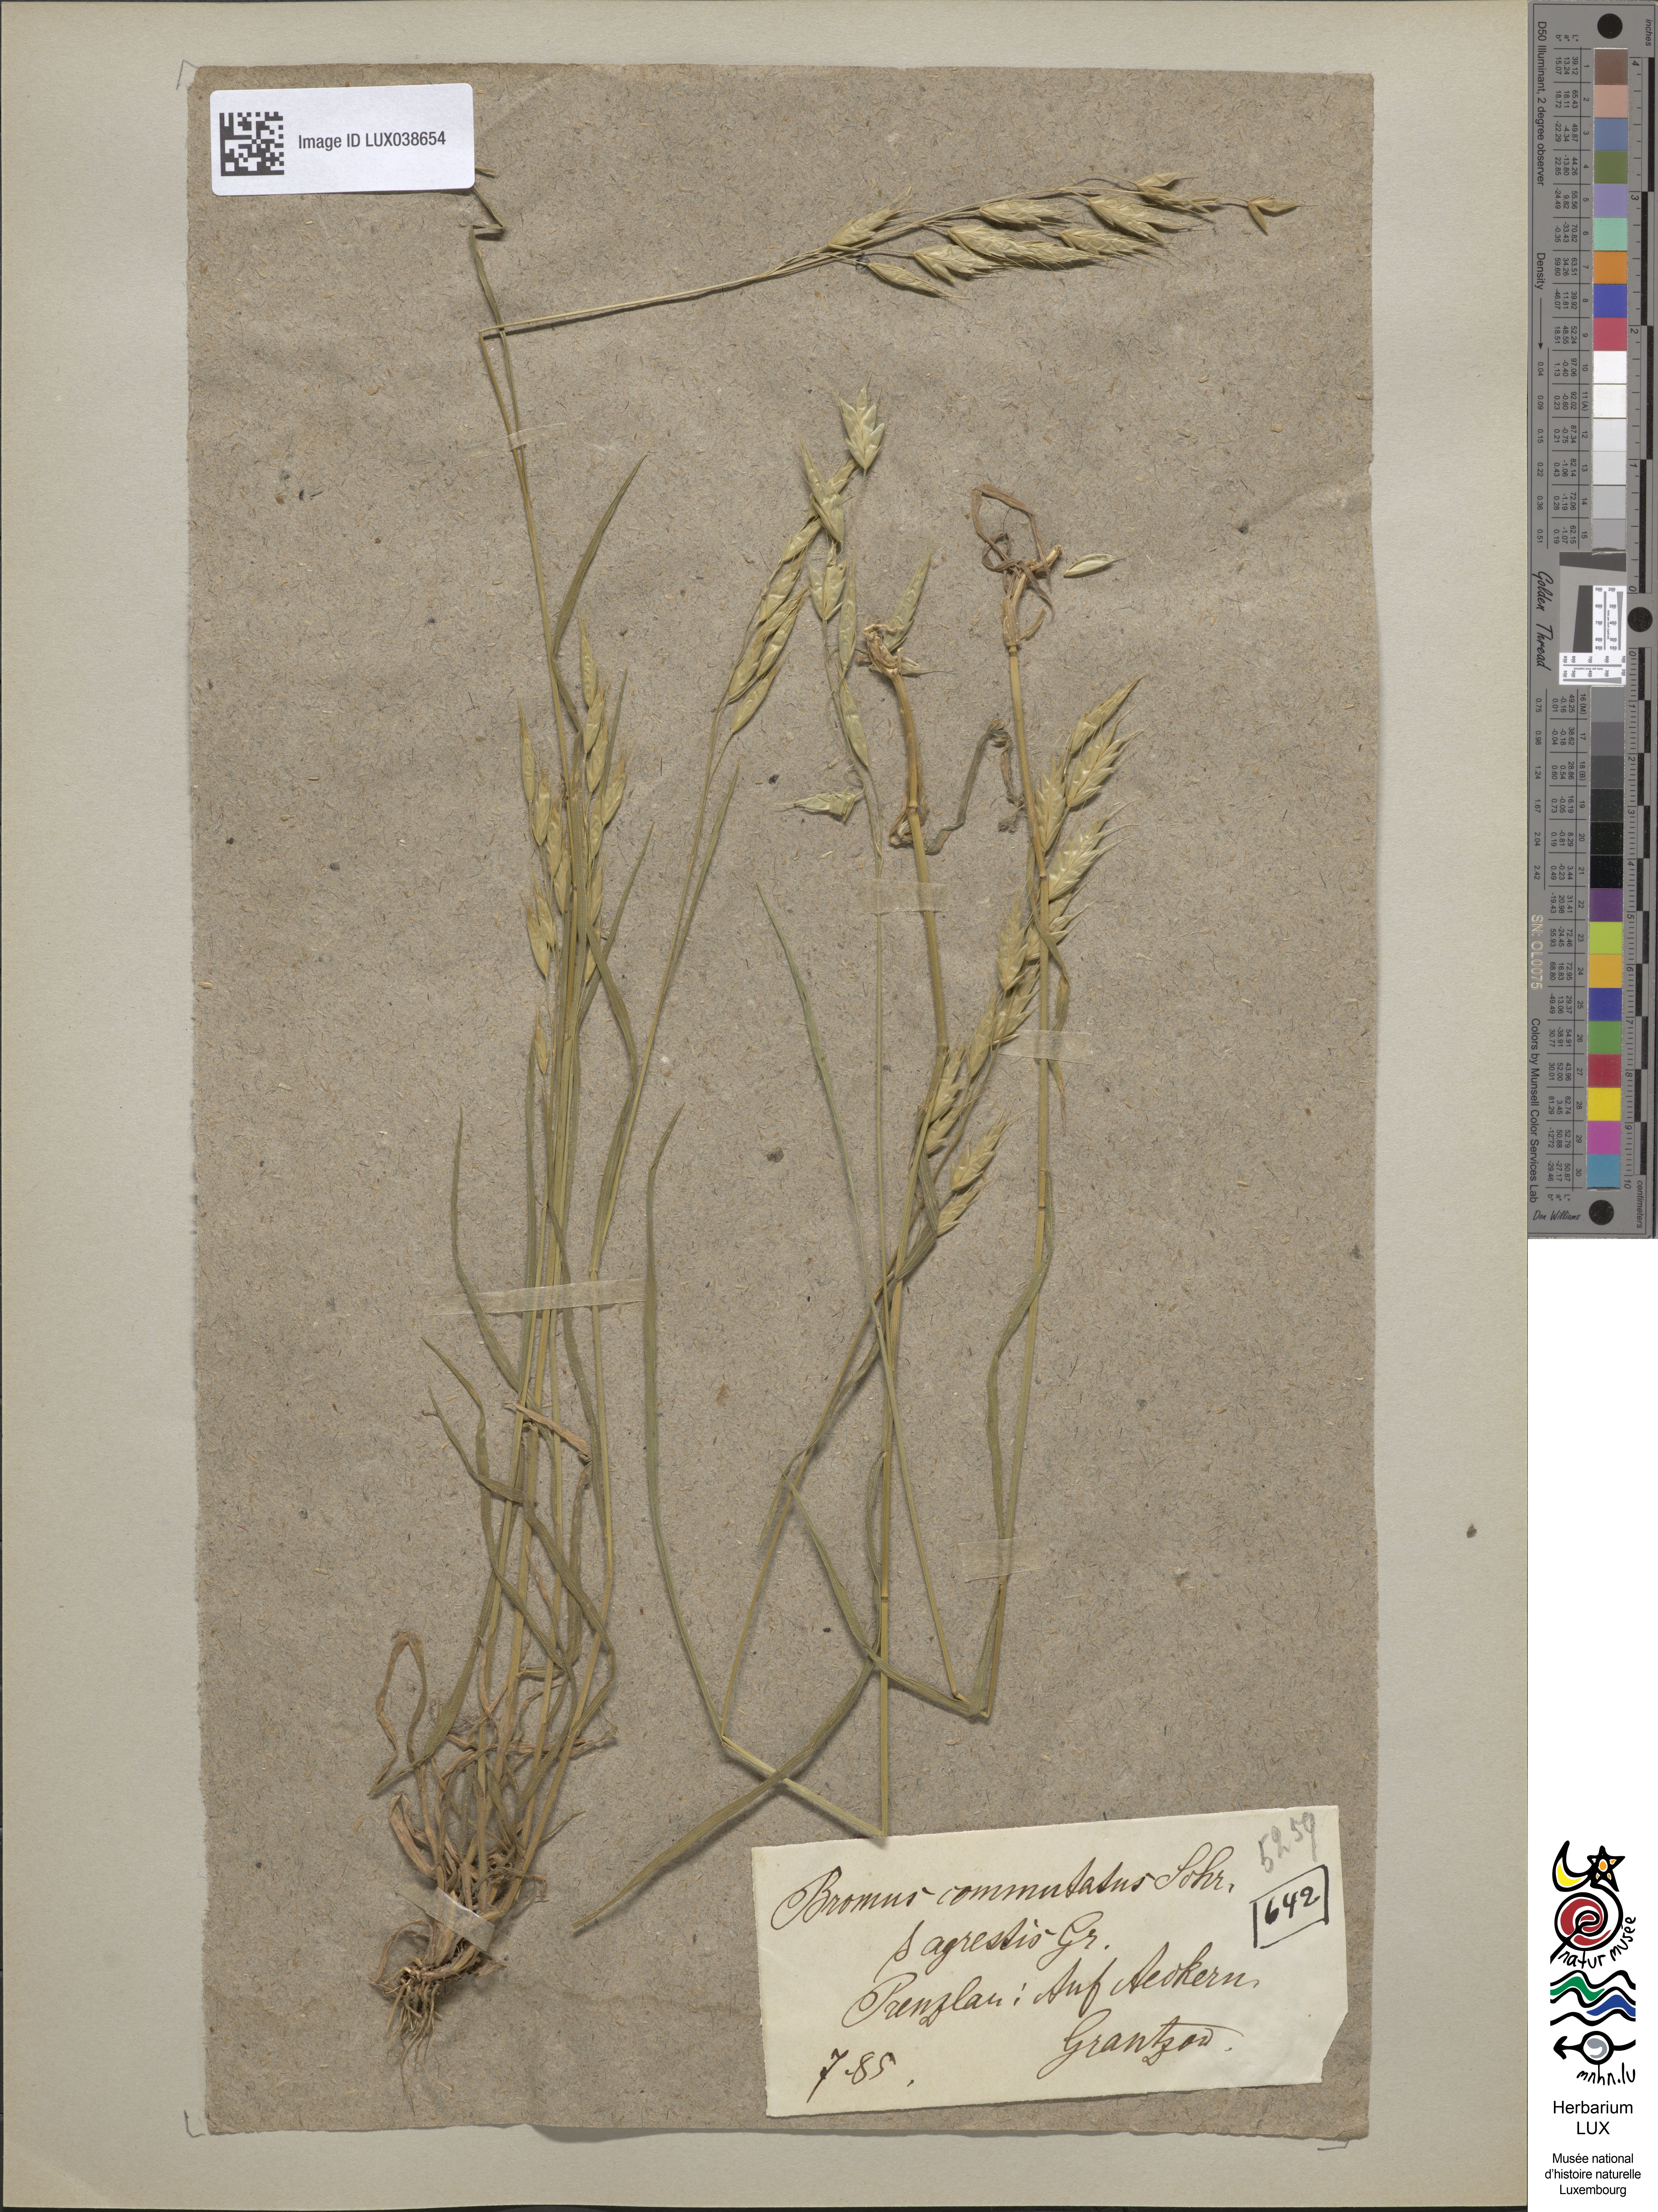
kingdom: Plantae
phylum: Tracheophyta
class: Liliopsida
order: Poales
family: Poaceae
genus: Bromus
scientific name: Bromus commutatus
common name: Meadow brome
